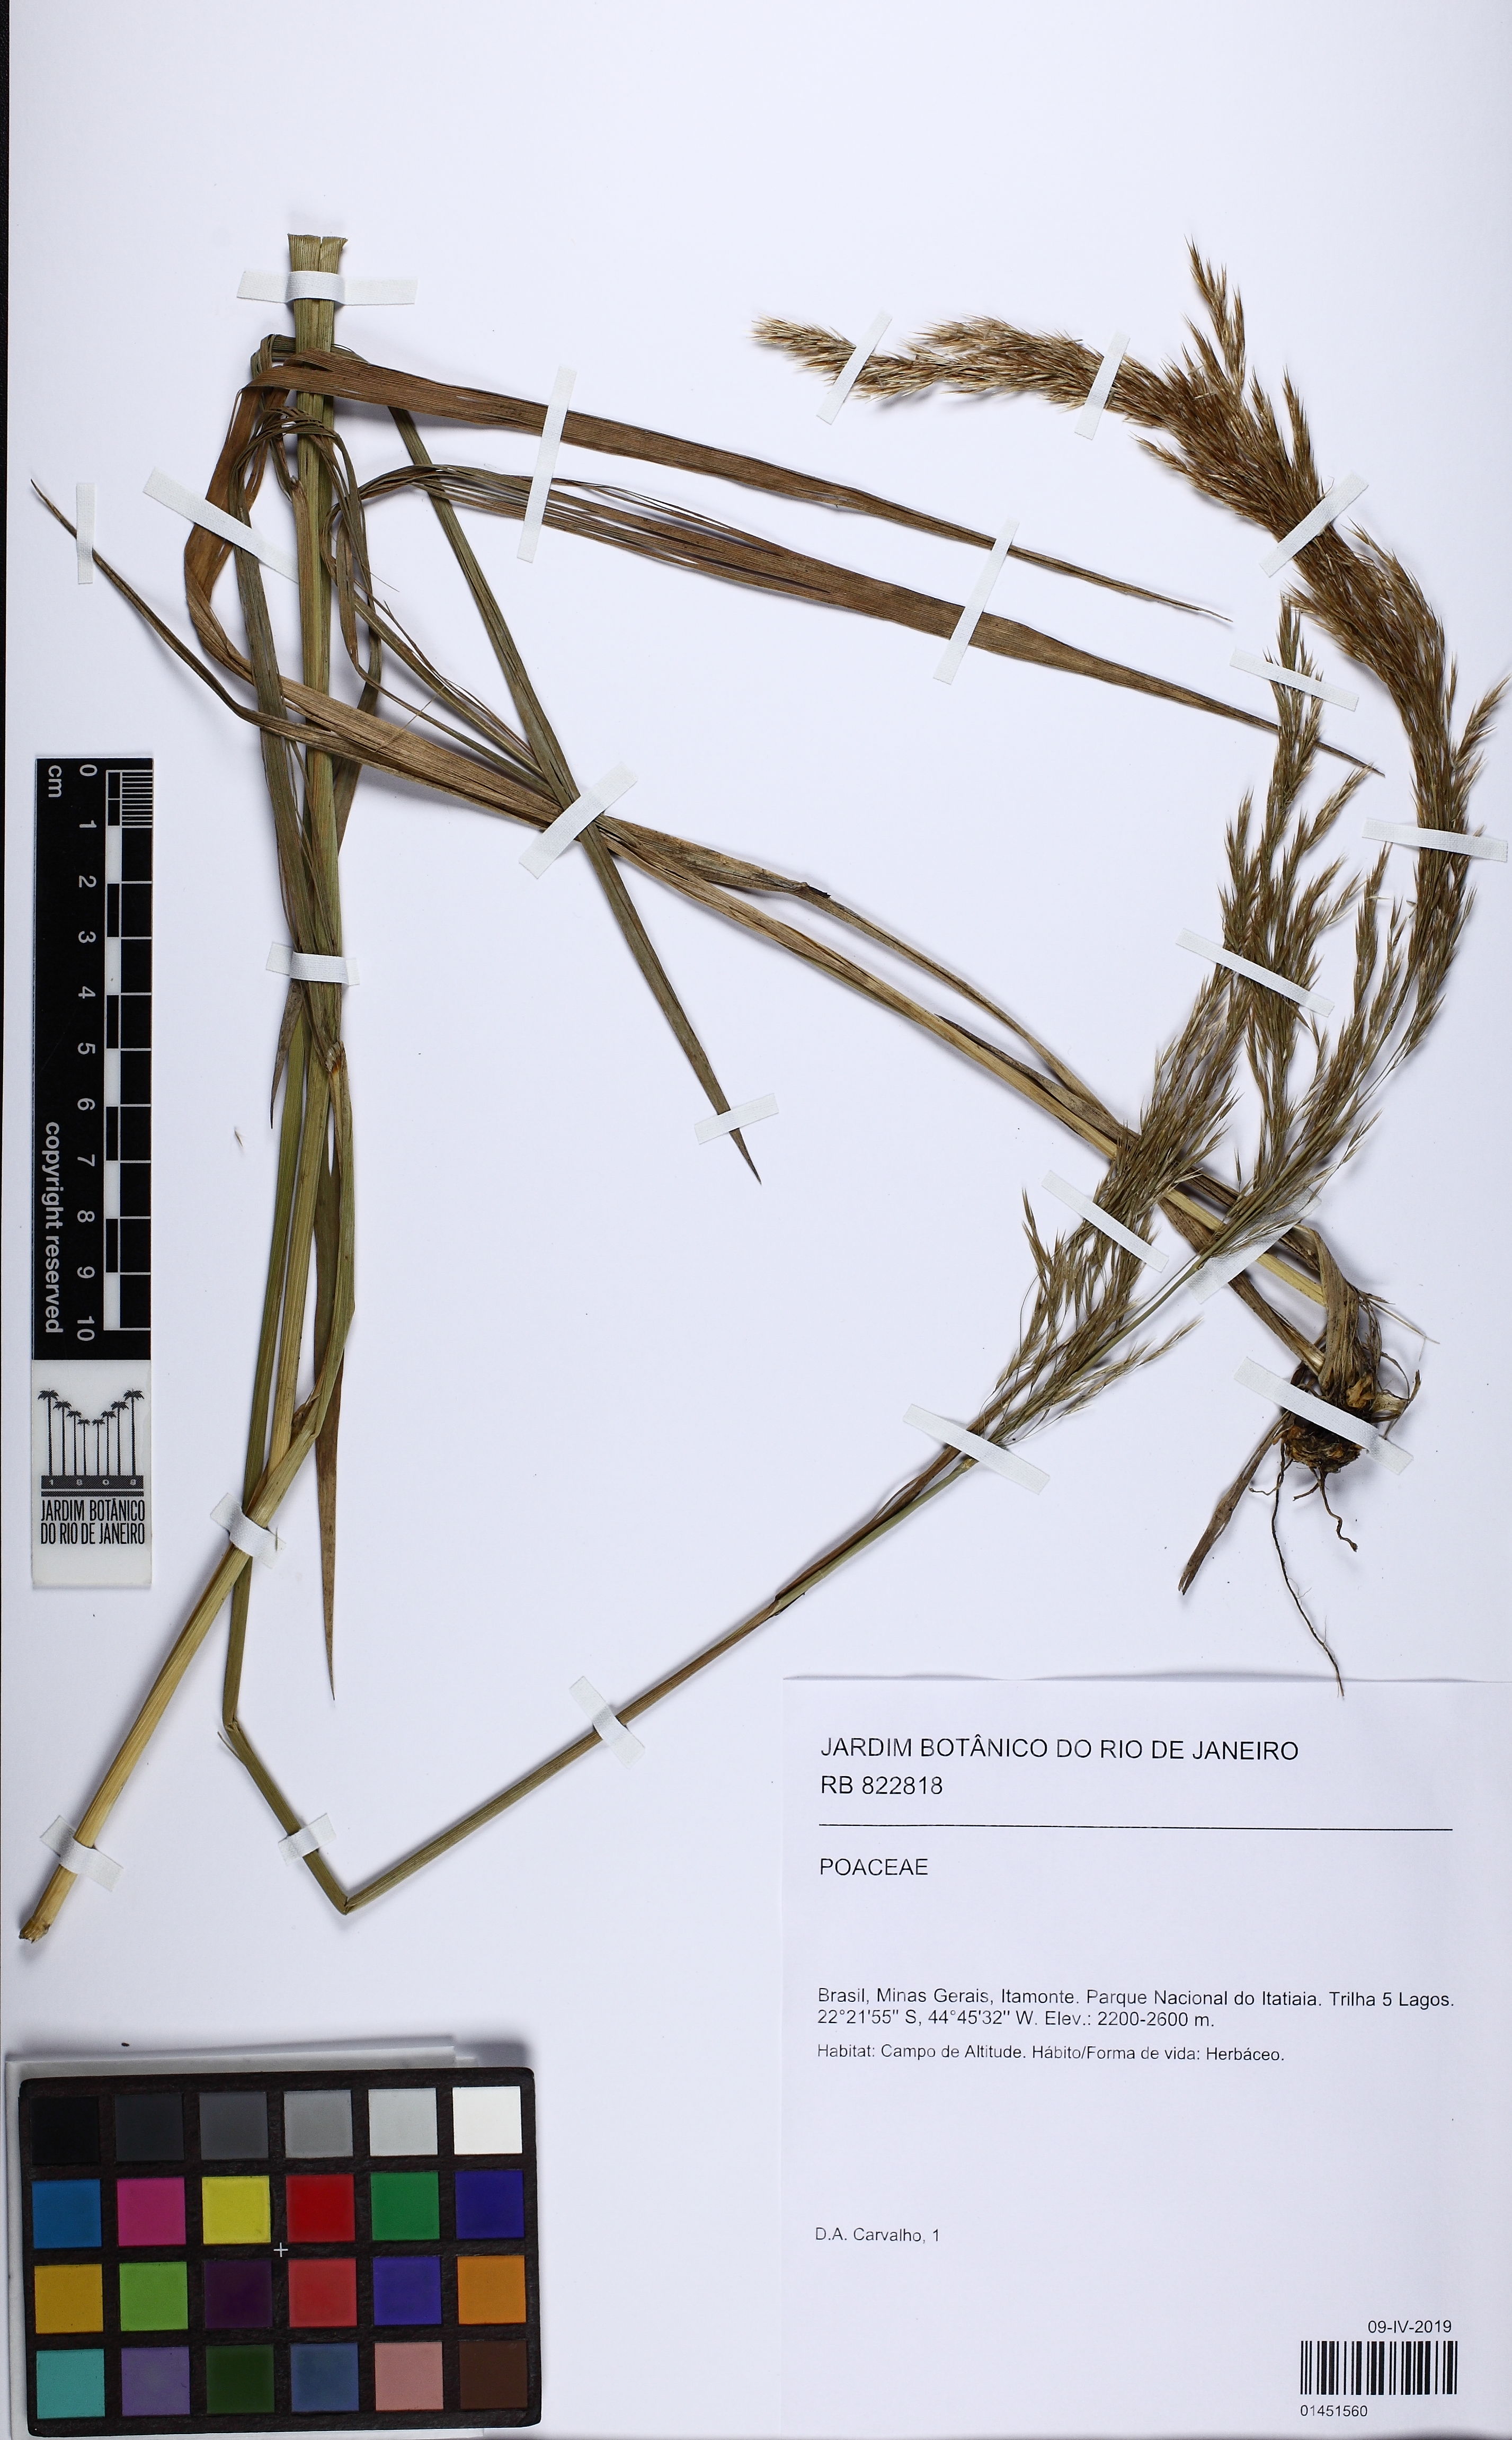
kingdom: Plantae
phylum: Tracheophyta
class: Liliopsida
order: Poales
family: Poaceae
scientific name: Poaceae
